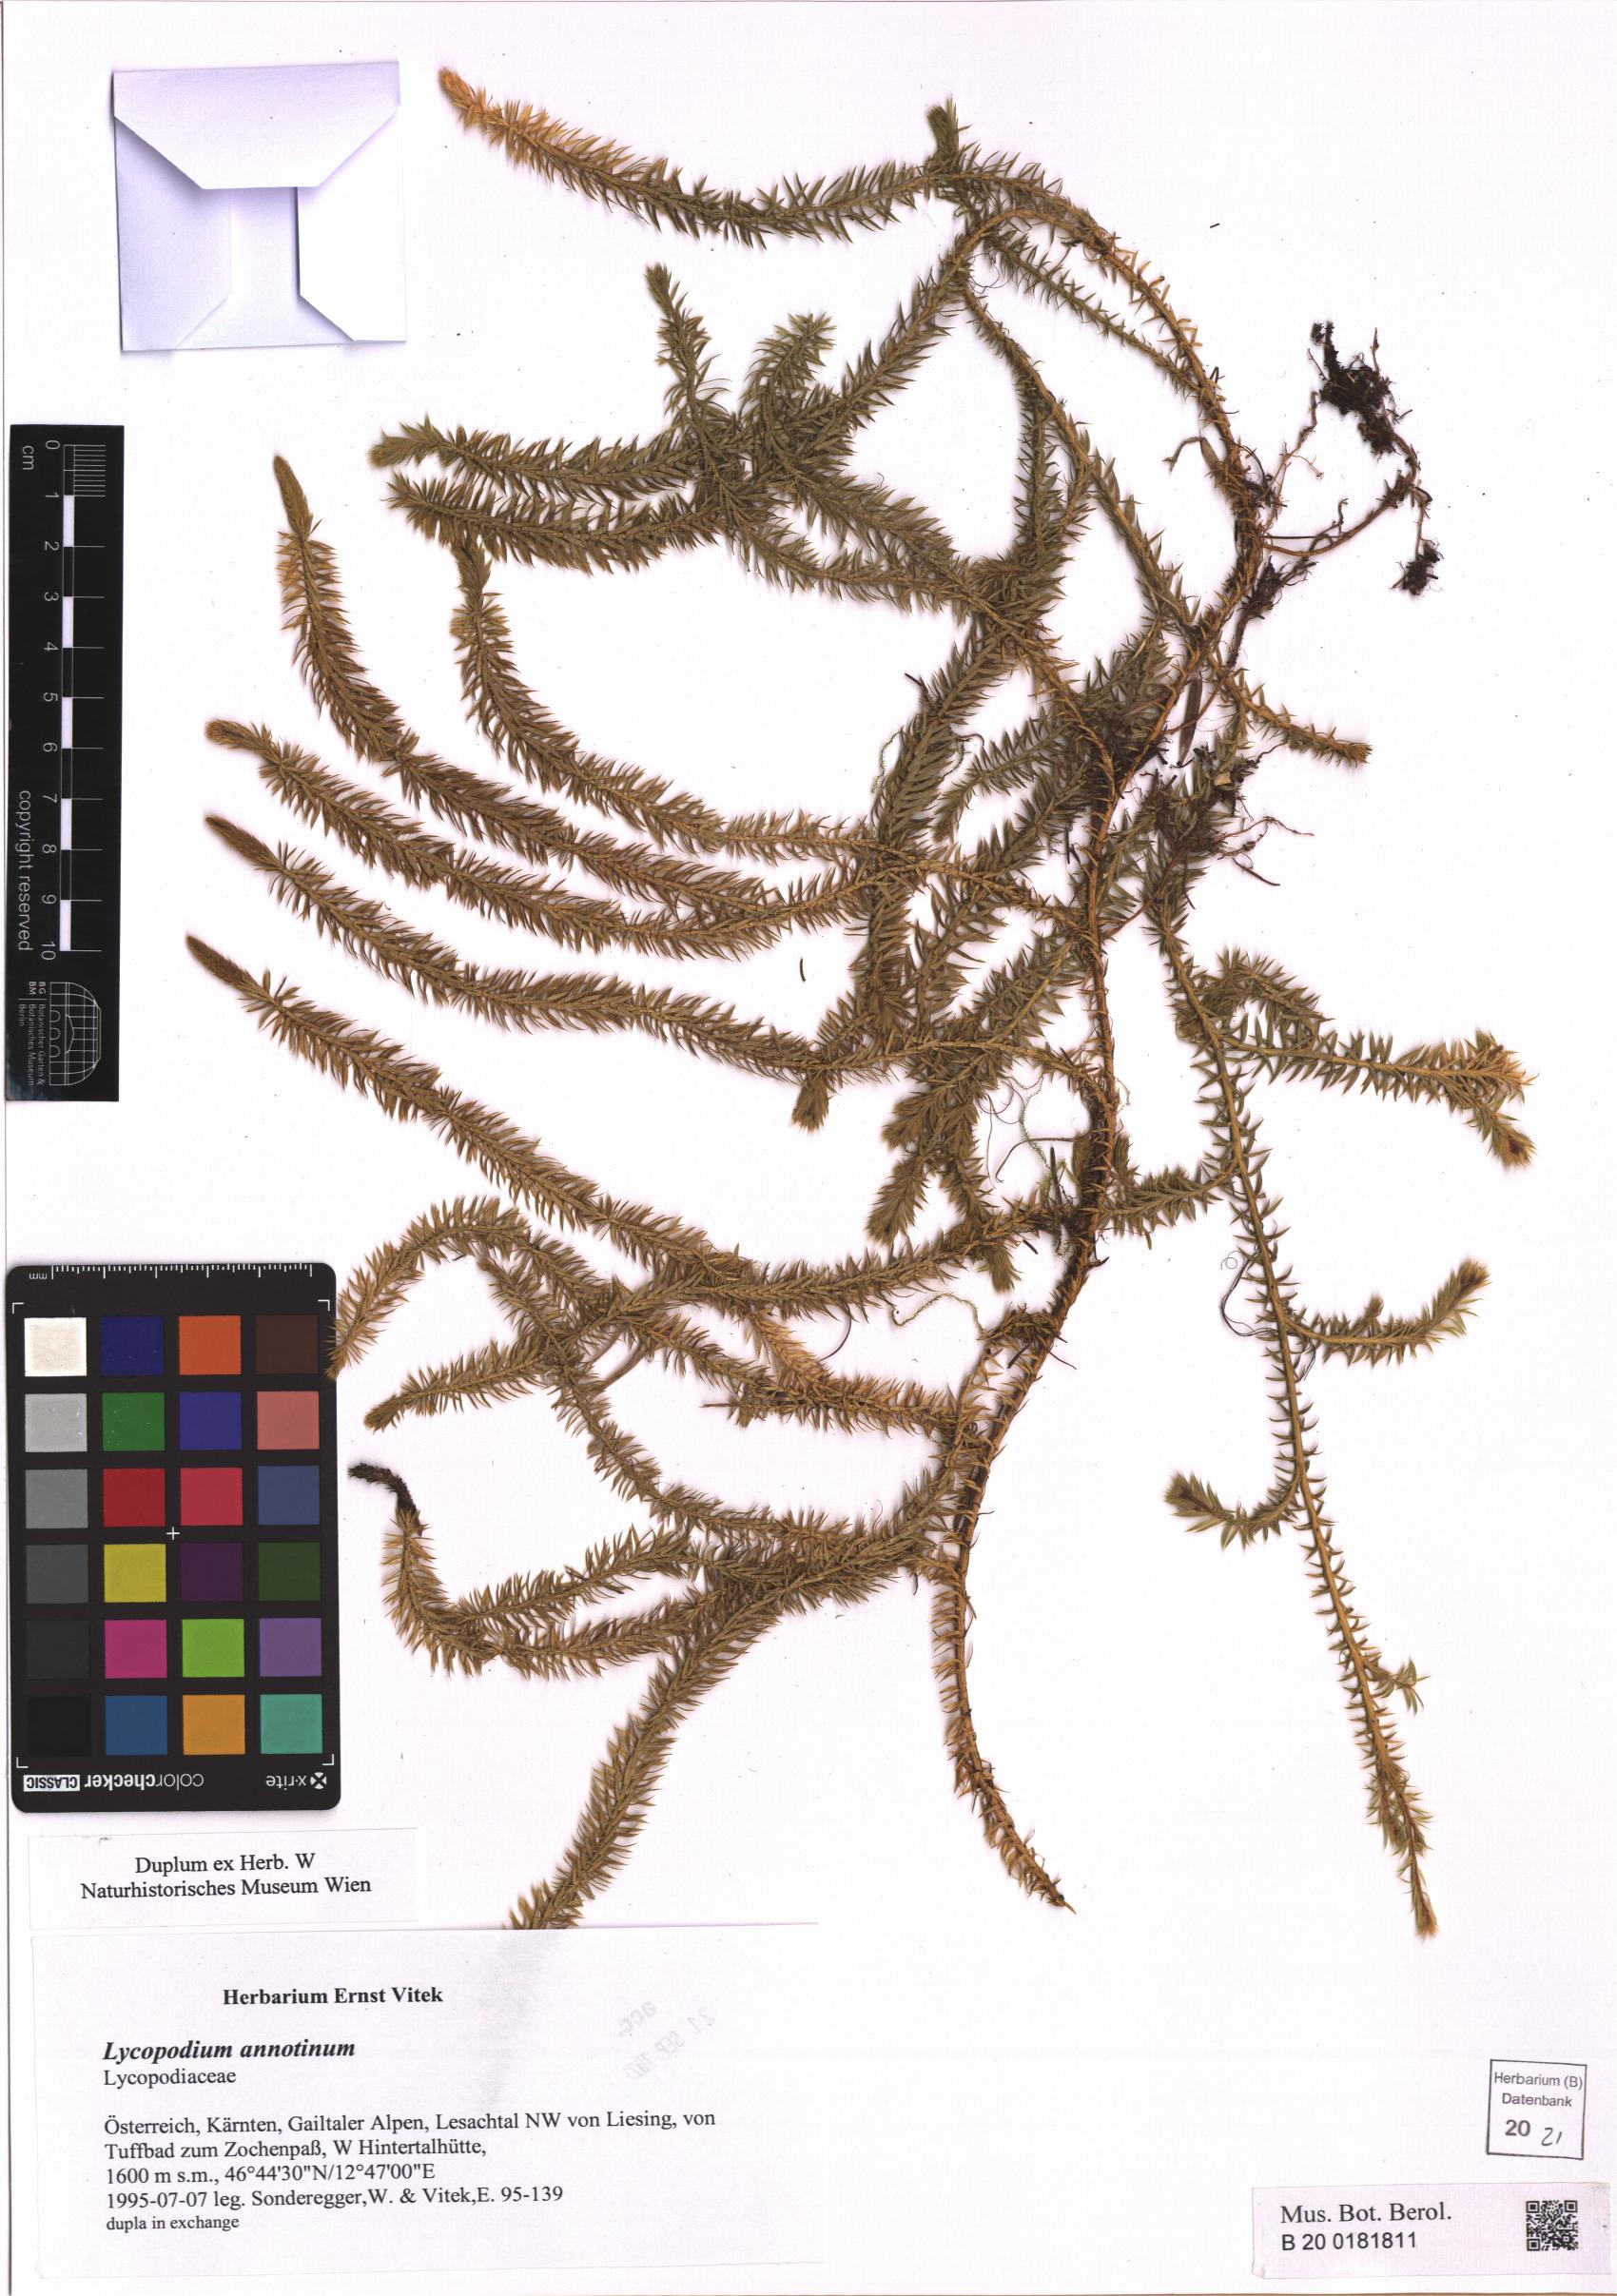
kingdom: Plantae
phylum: Tracheophyta
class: Lycopodiopsida
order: Lycopodiales
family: Lycopodiaceae
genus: Spinulum
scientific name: Spinulum annotinum
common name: Interrupted club-moss
